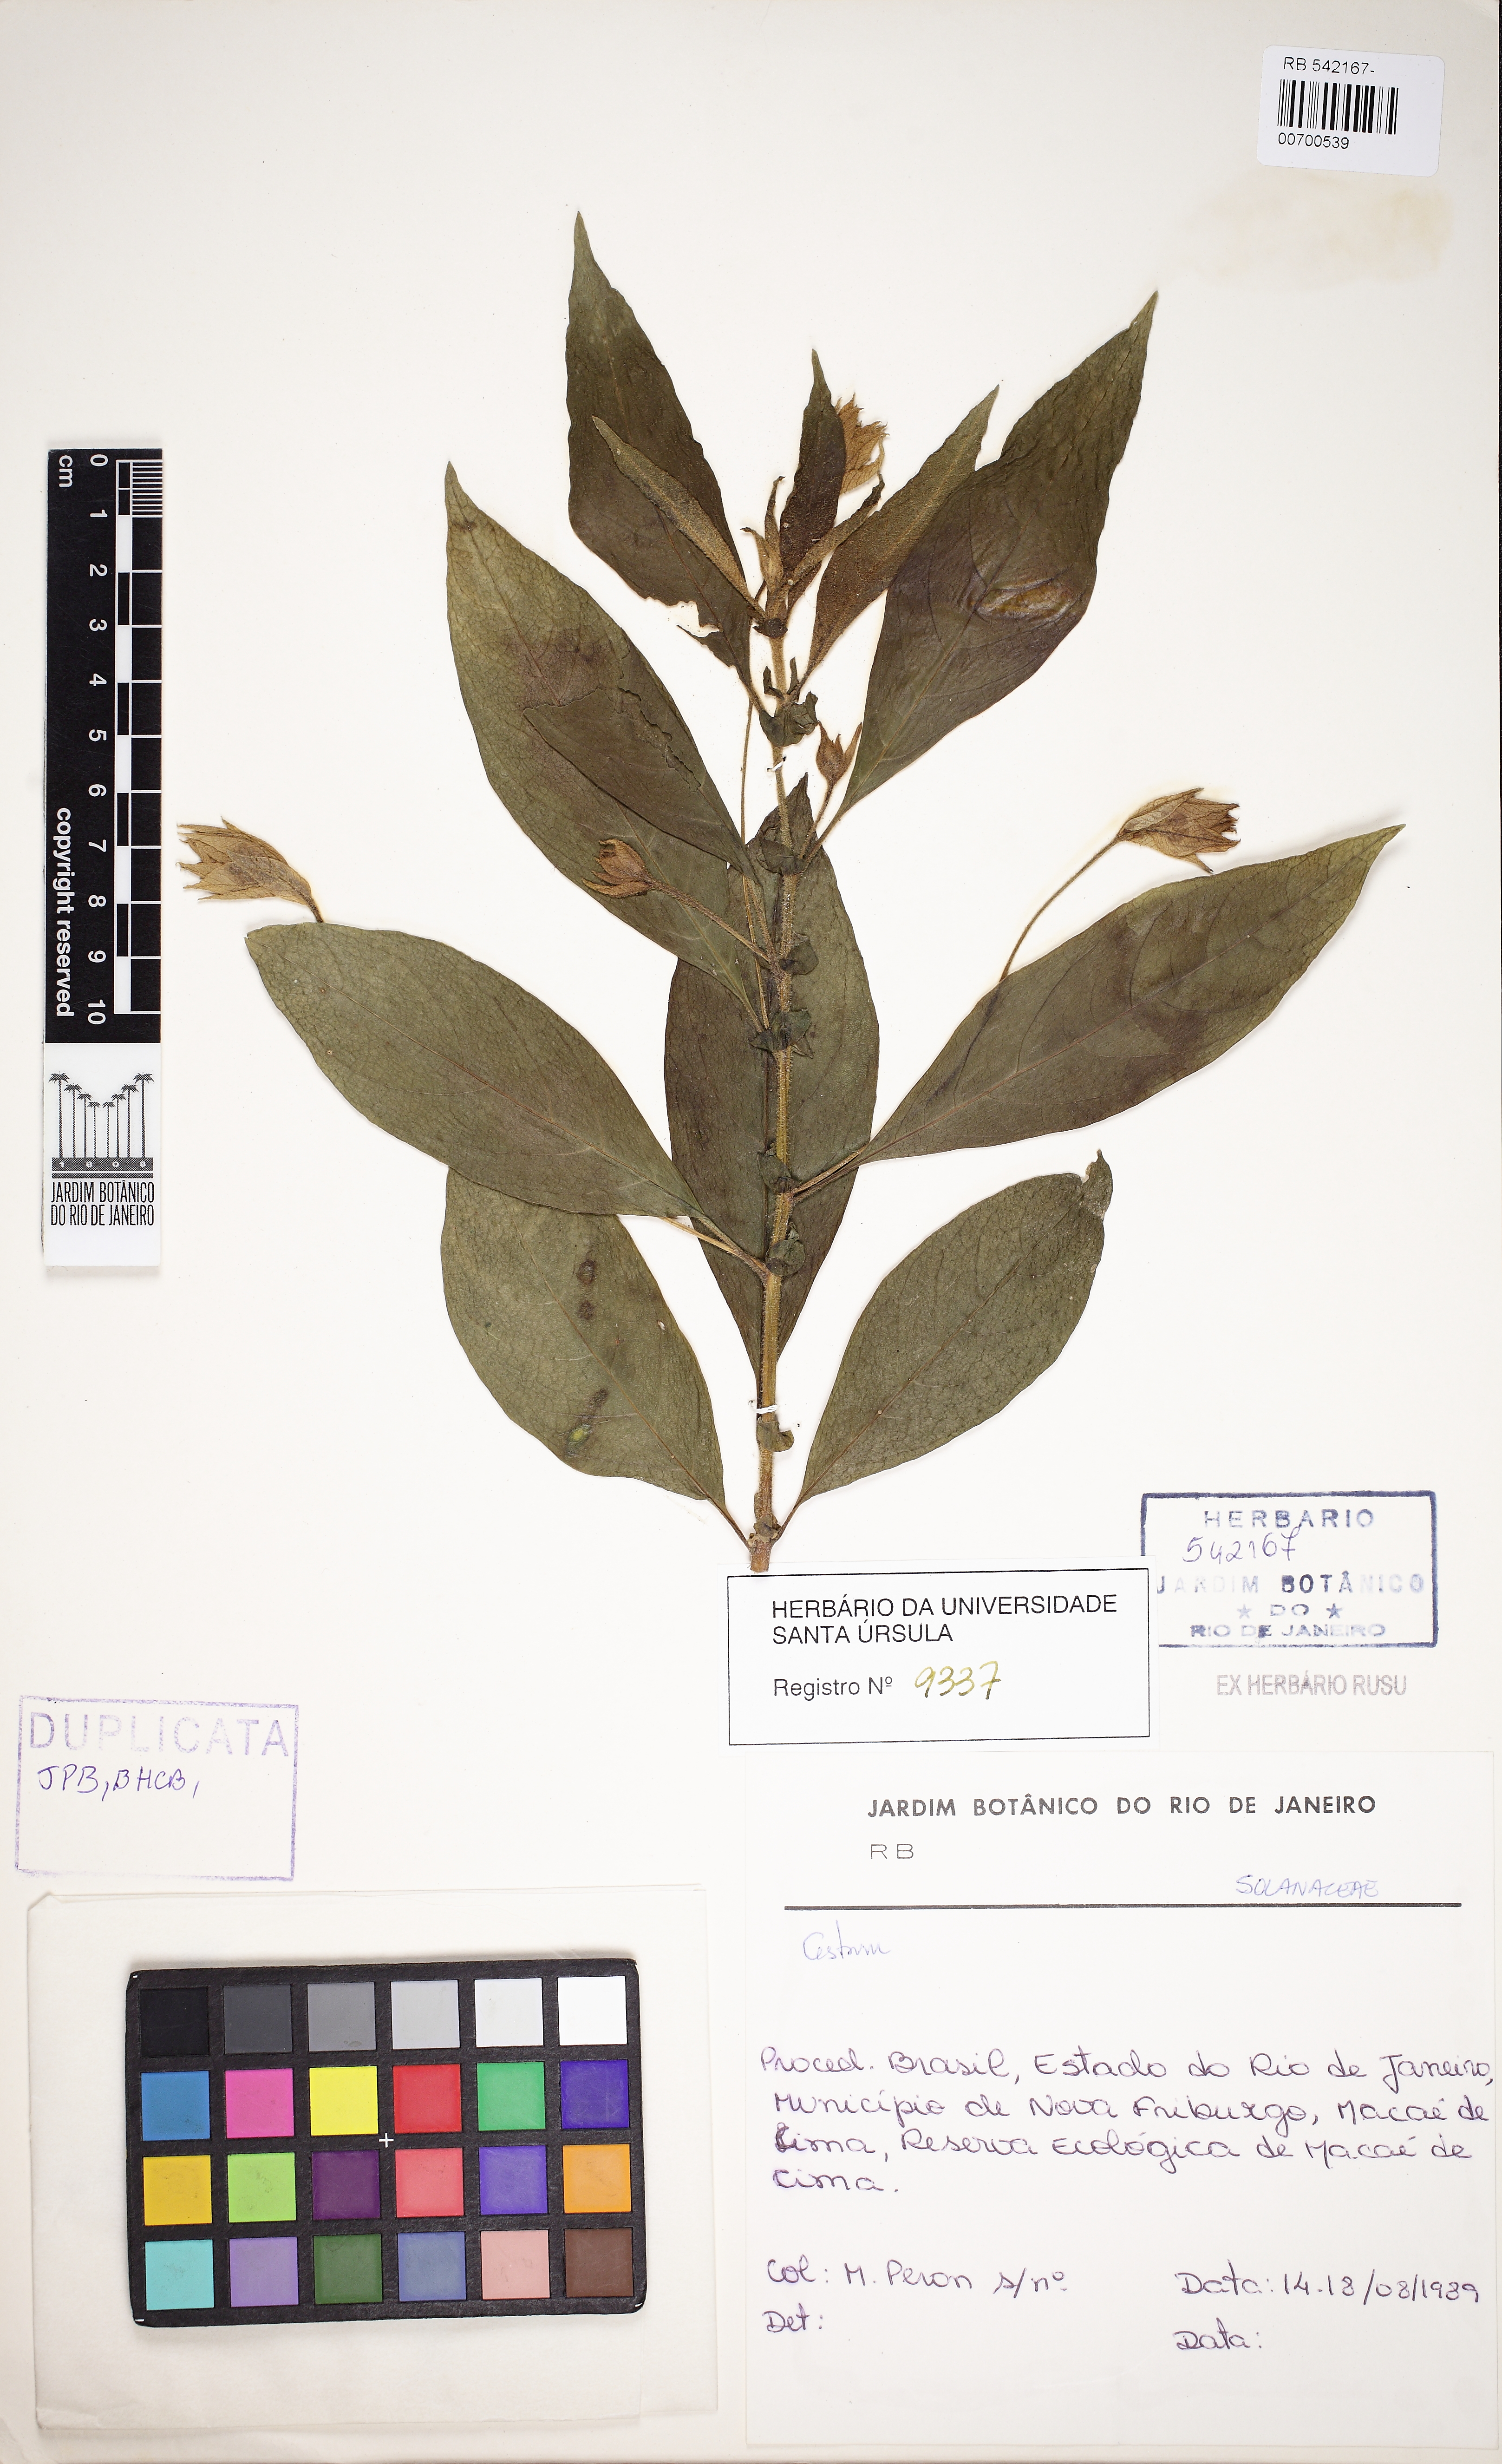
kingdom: Plantae
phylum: Tracheophyta
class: Magnoliopsida
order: Solanales
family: Solanaceae
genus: Cestrum
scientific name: Cestrum
